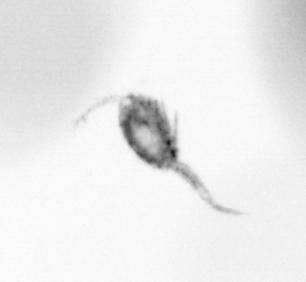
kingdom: Animalia
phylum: Arthropoda
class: Copepoda
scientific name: Copepoda
